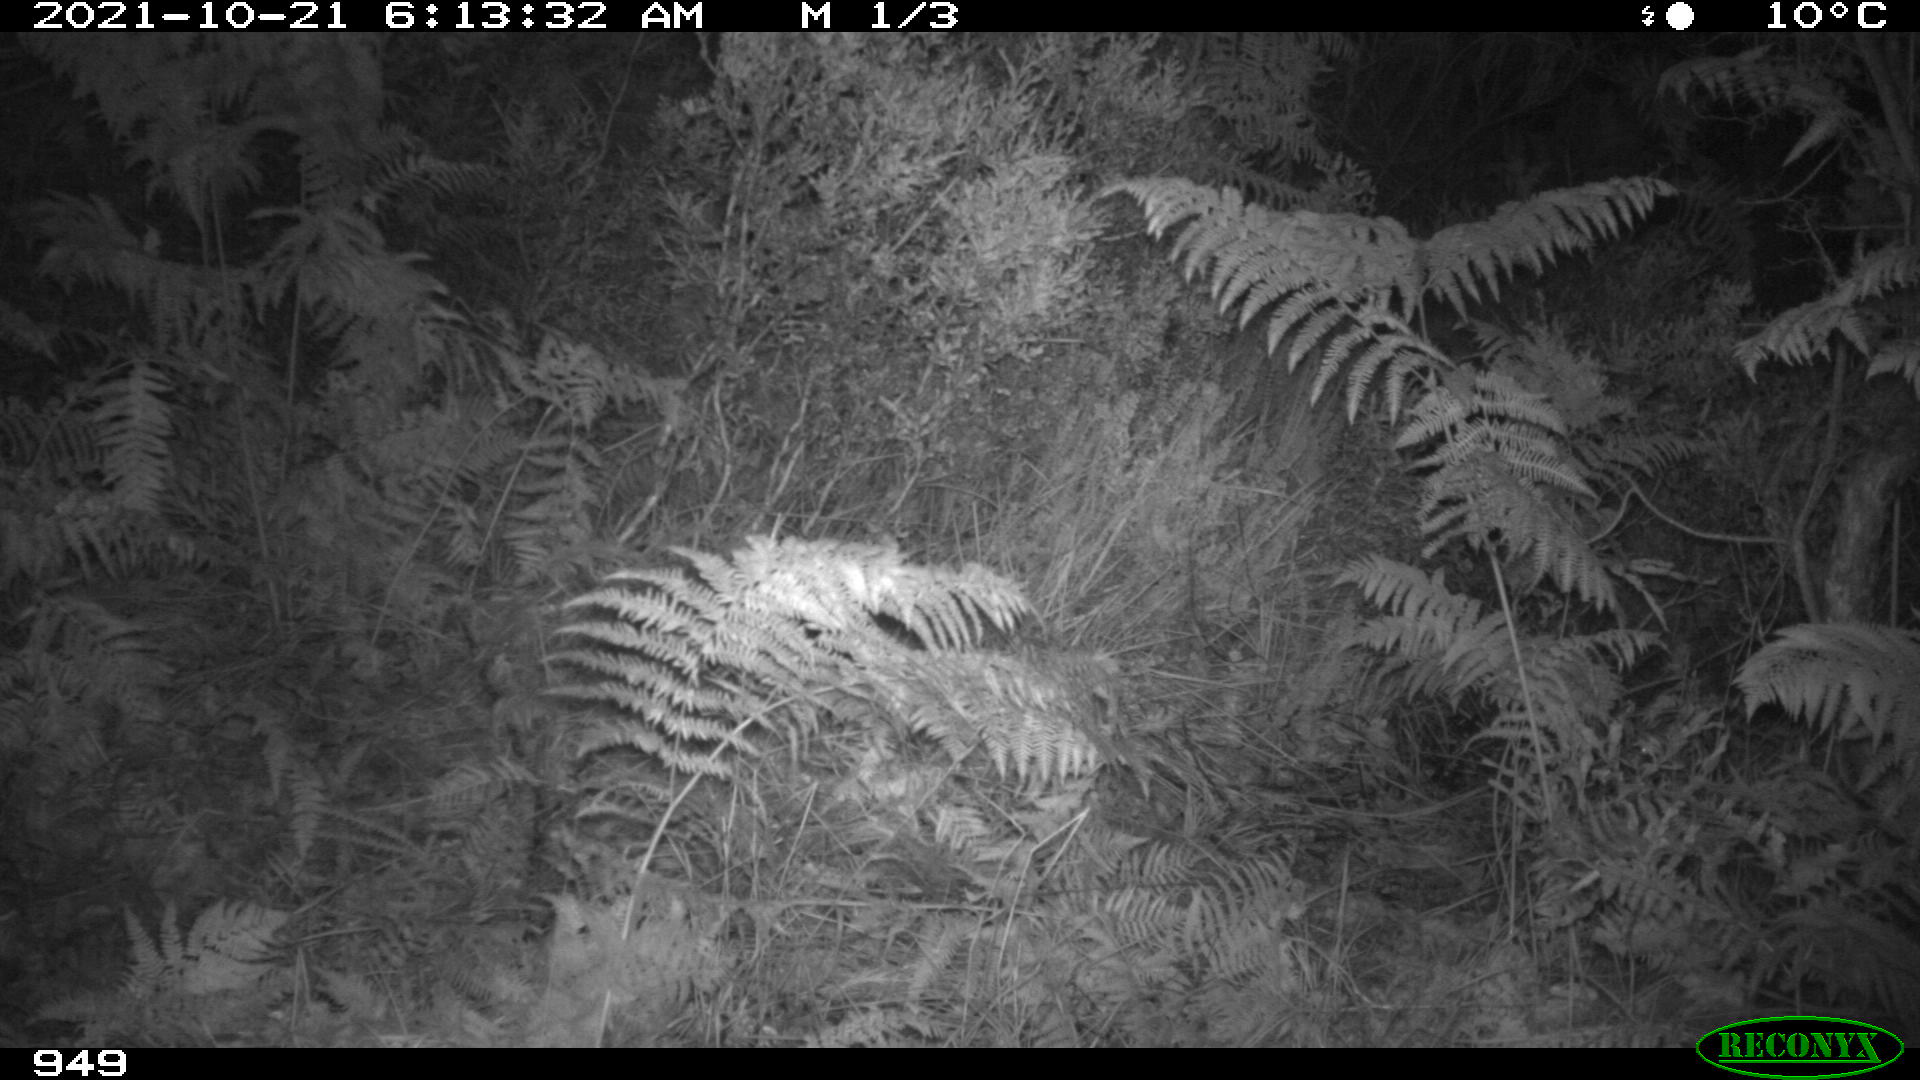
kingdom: Animalia
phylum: Chordata
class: Mammalia
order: Perissodactyla
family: Equidae
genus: Equus
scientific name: Equus caballus
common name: Horse
